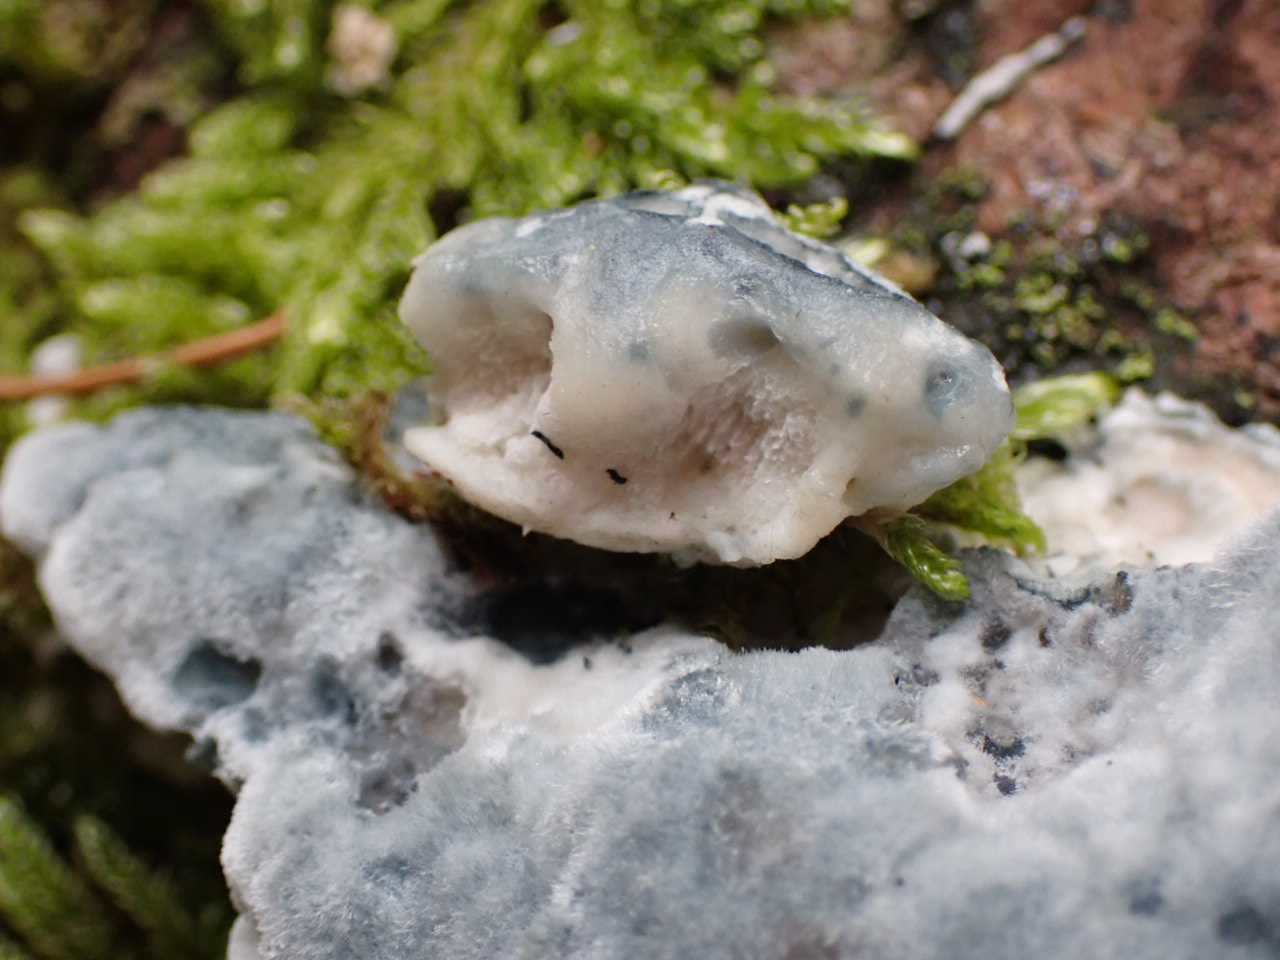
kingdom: Fungi
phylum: Basidiomycota
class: Agaricomycetes
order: Polyporales
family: Polyporaceae
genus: Cyanosporus
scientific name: Cyanosporus caesius
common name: blålig kødporesvamp
